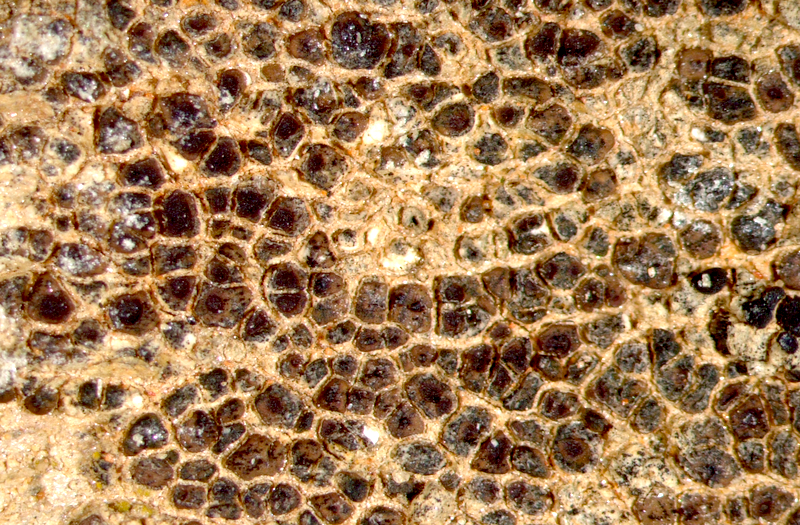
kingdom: Fungi
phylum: Ascomycota
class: Lecanoromycetes
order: Acarosporales
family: Acarosporaceae
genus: Acarospora
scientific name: Acarospora
